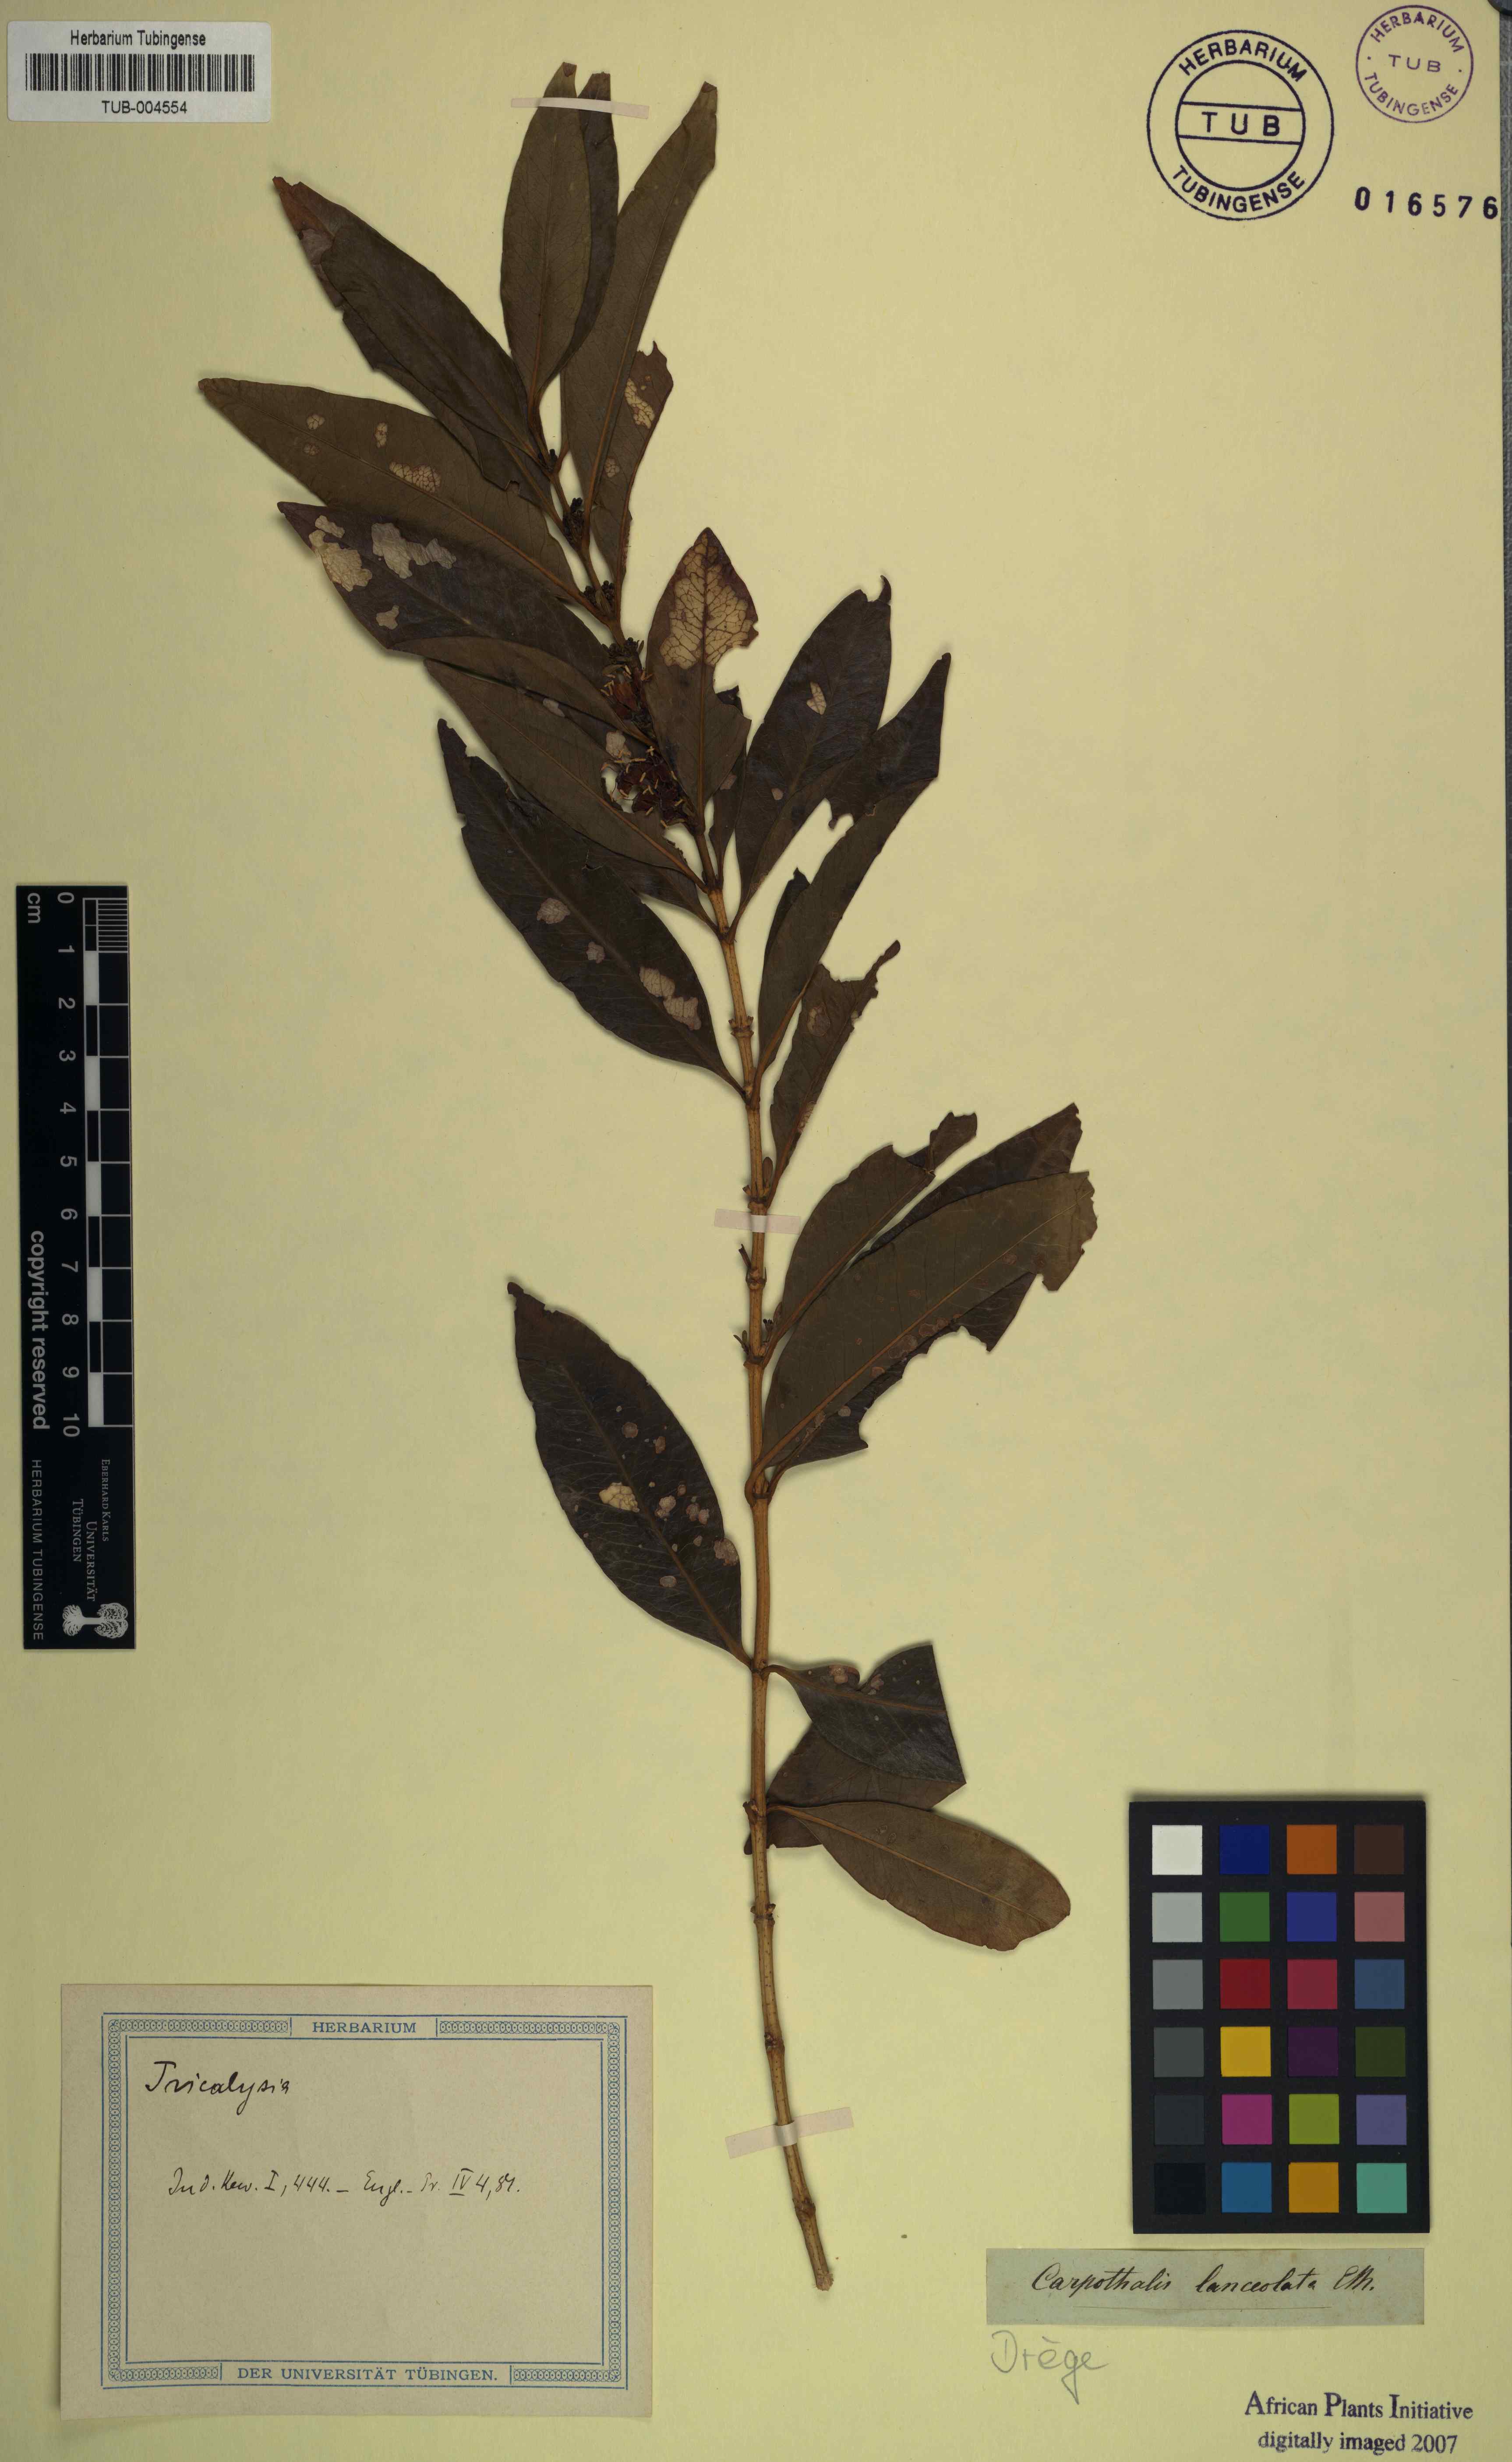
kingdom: Plantae
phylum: Tracheophyta
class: Magnoliopsida
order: Gentianales
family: Rubiaceae
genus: Empogona
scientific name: Empogona lanceolata
